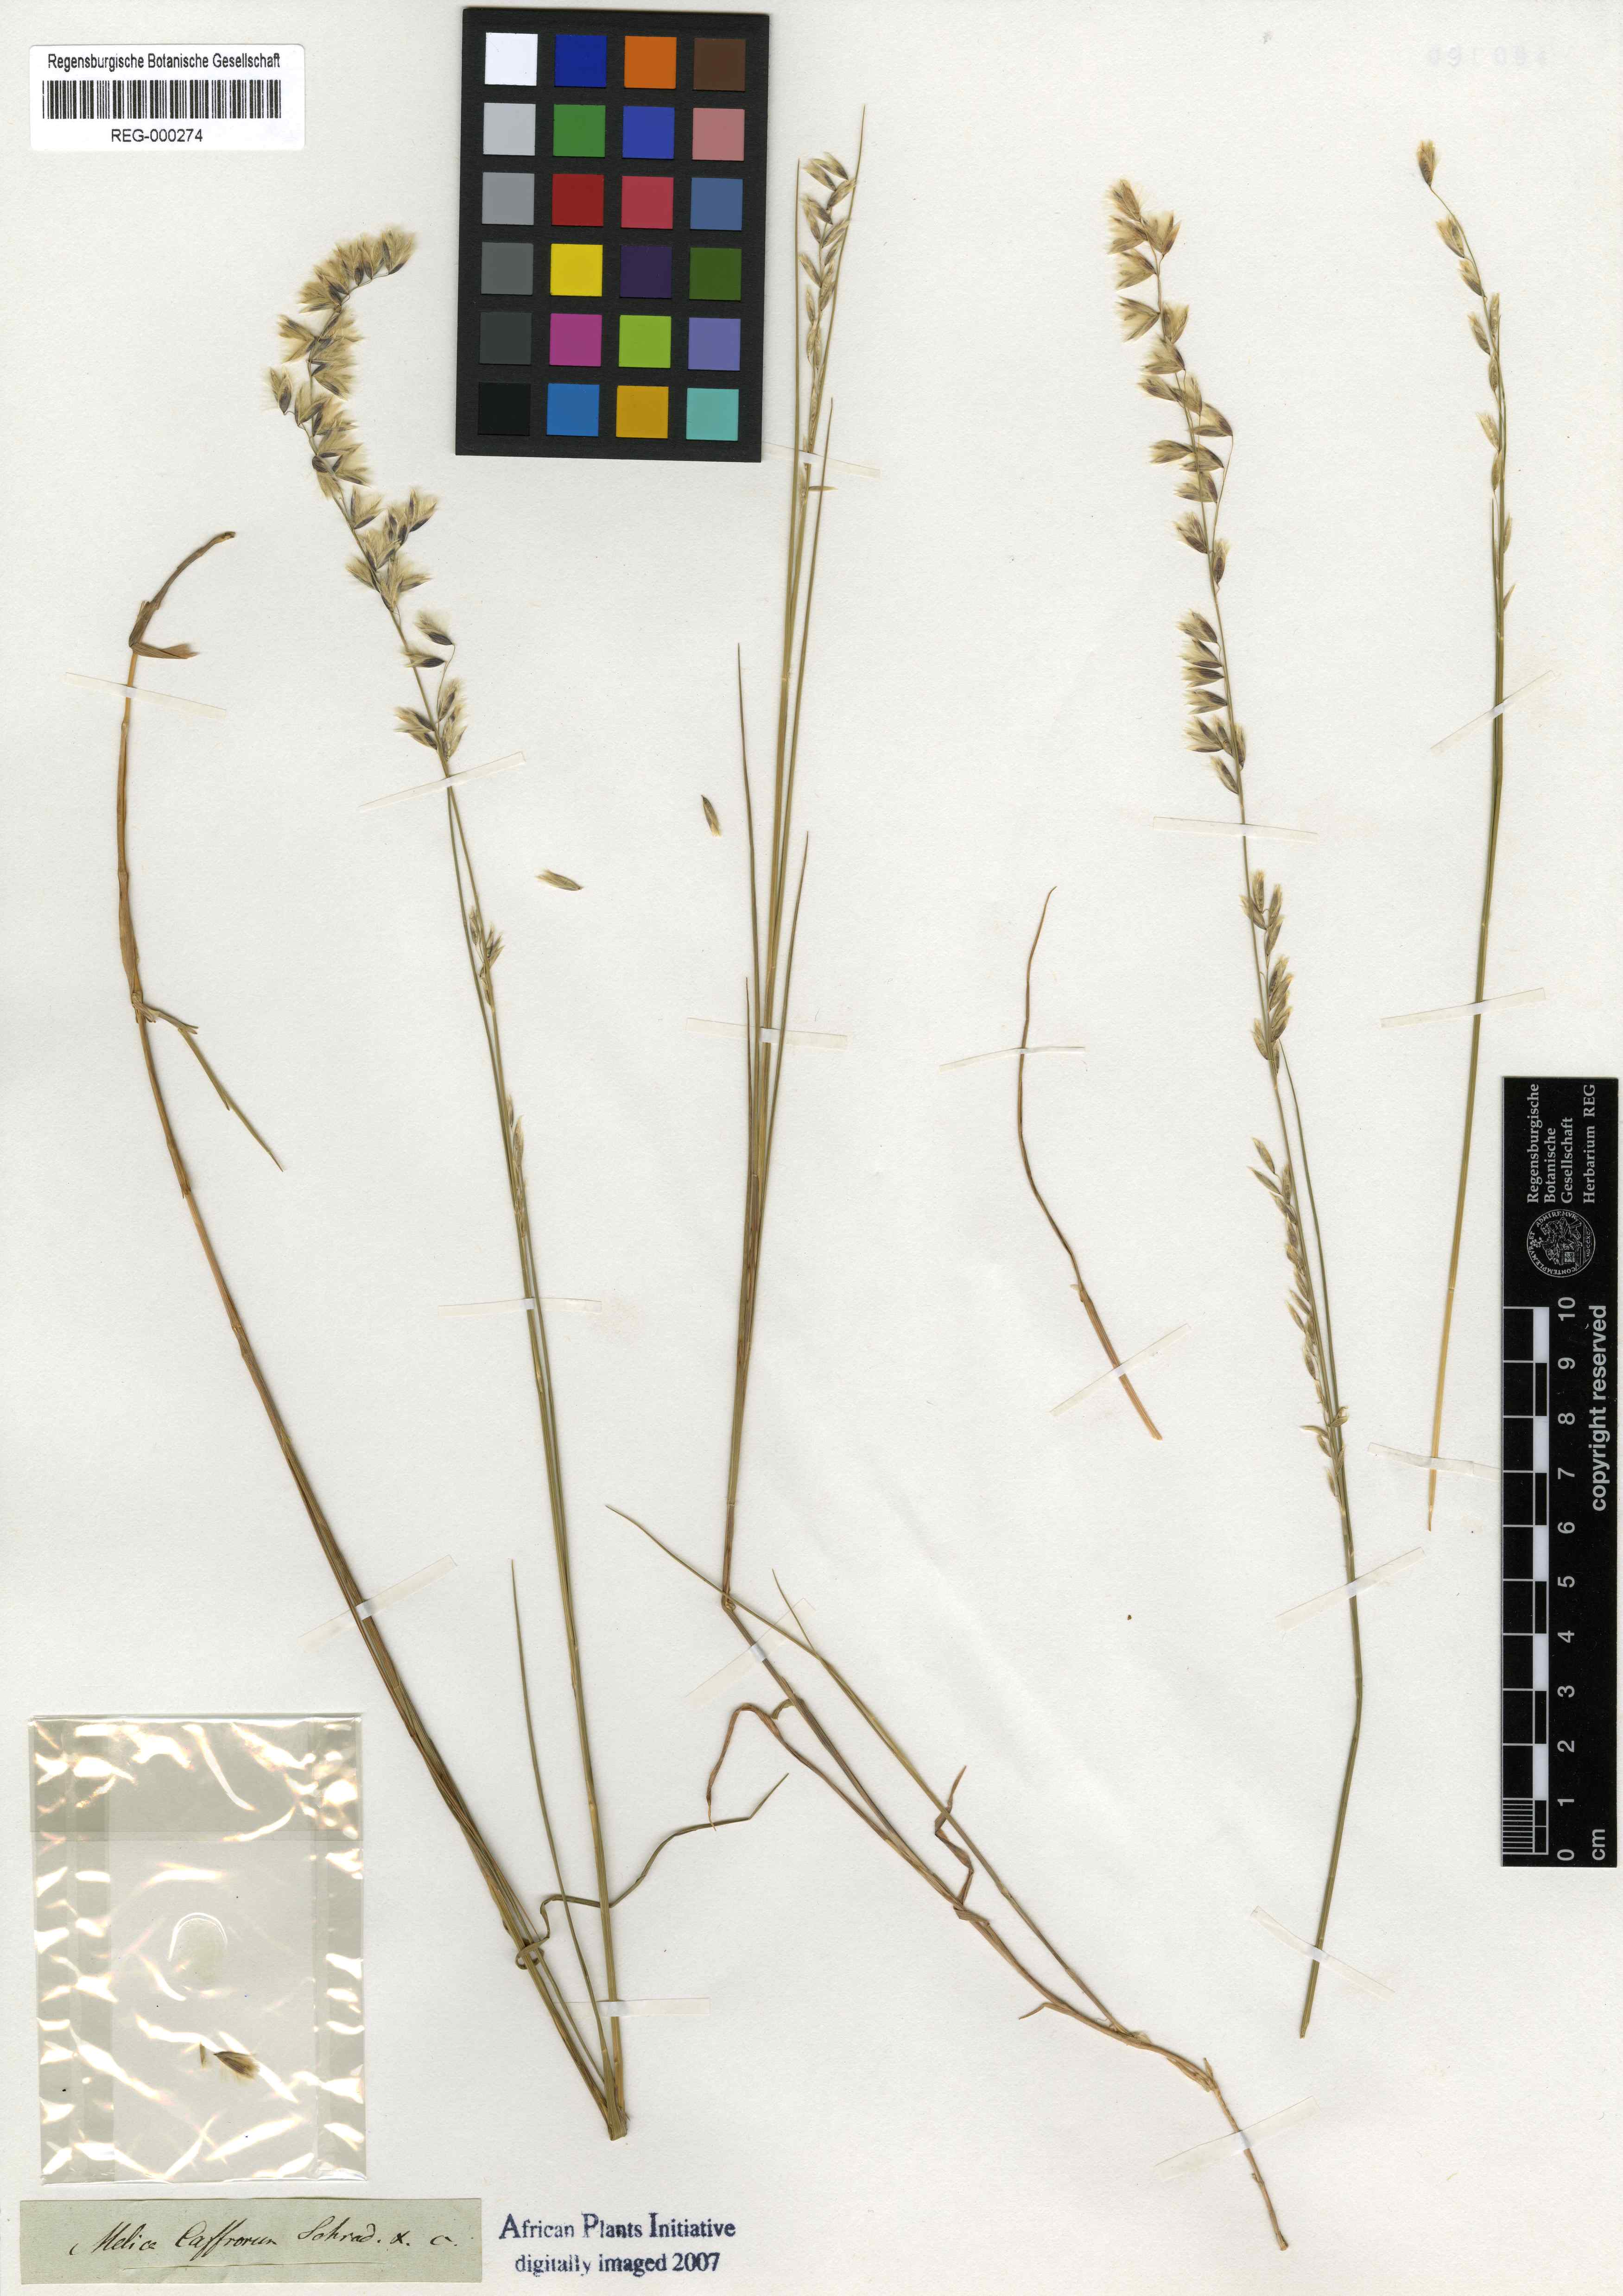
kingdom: Plantae
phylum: Tracheophyta
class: Liliopsida
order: Poales
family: Poaceae
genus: Melica
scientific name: Melica racemosa
